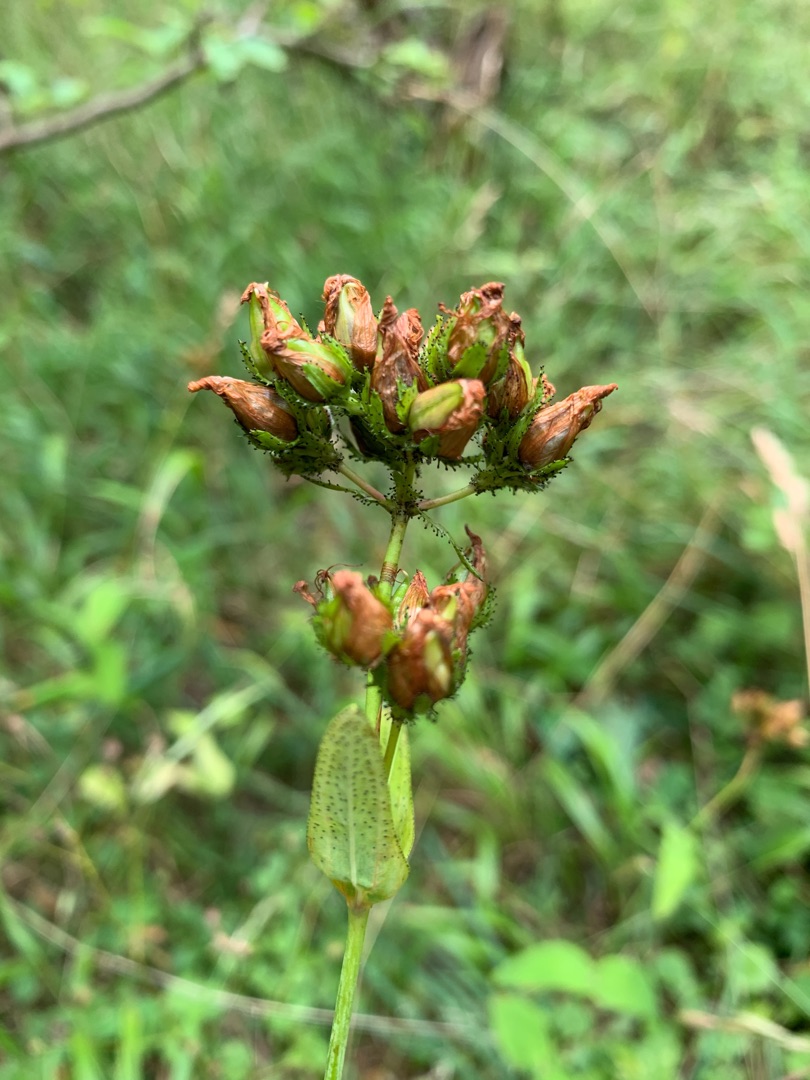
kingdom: Plantae
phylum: Tracheophyta
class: Magnoliopsida
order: Malpighiales
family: Hypericaceae
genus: Hypericum
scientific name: Hypericum montanum
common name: Bjerg-perikon
